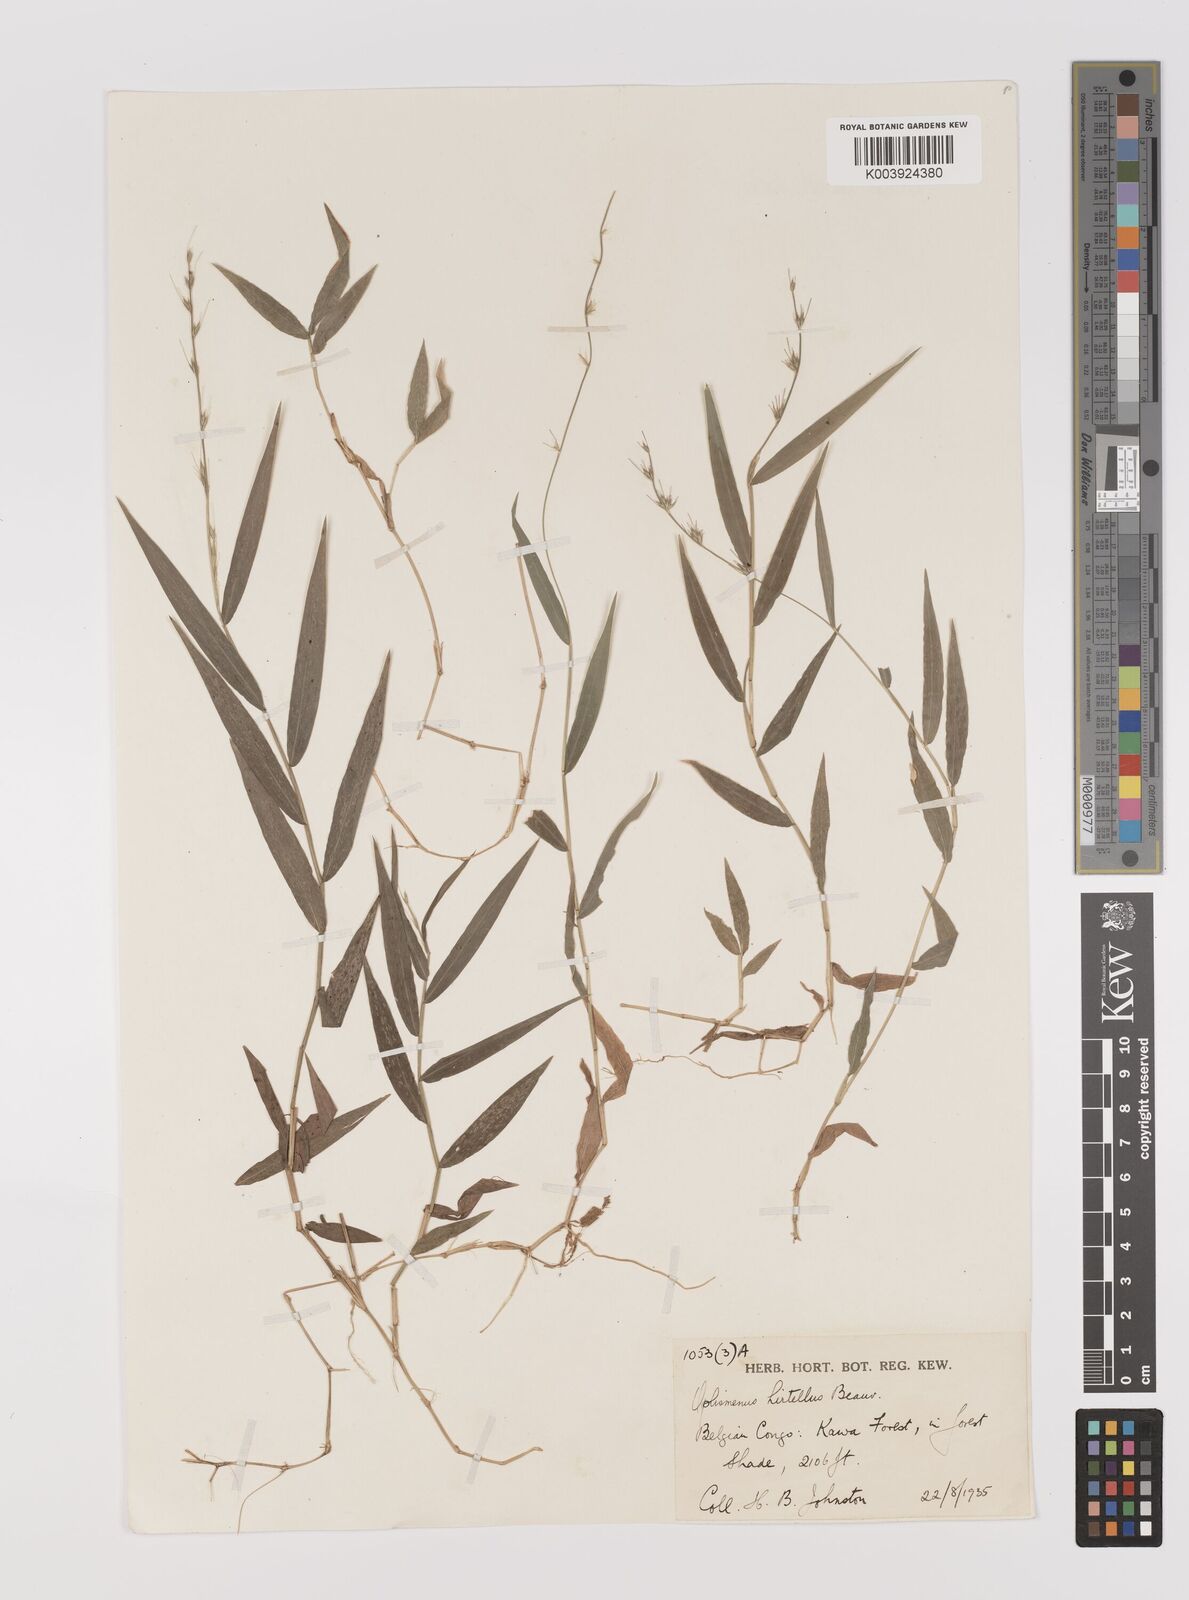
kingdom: Plantae
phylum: Tracheophyta
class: Liliopsida
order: Poales
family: Poaceae
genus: Oplismenus
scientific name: Oplismenus hirtellus
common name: Basketgrass
